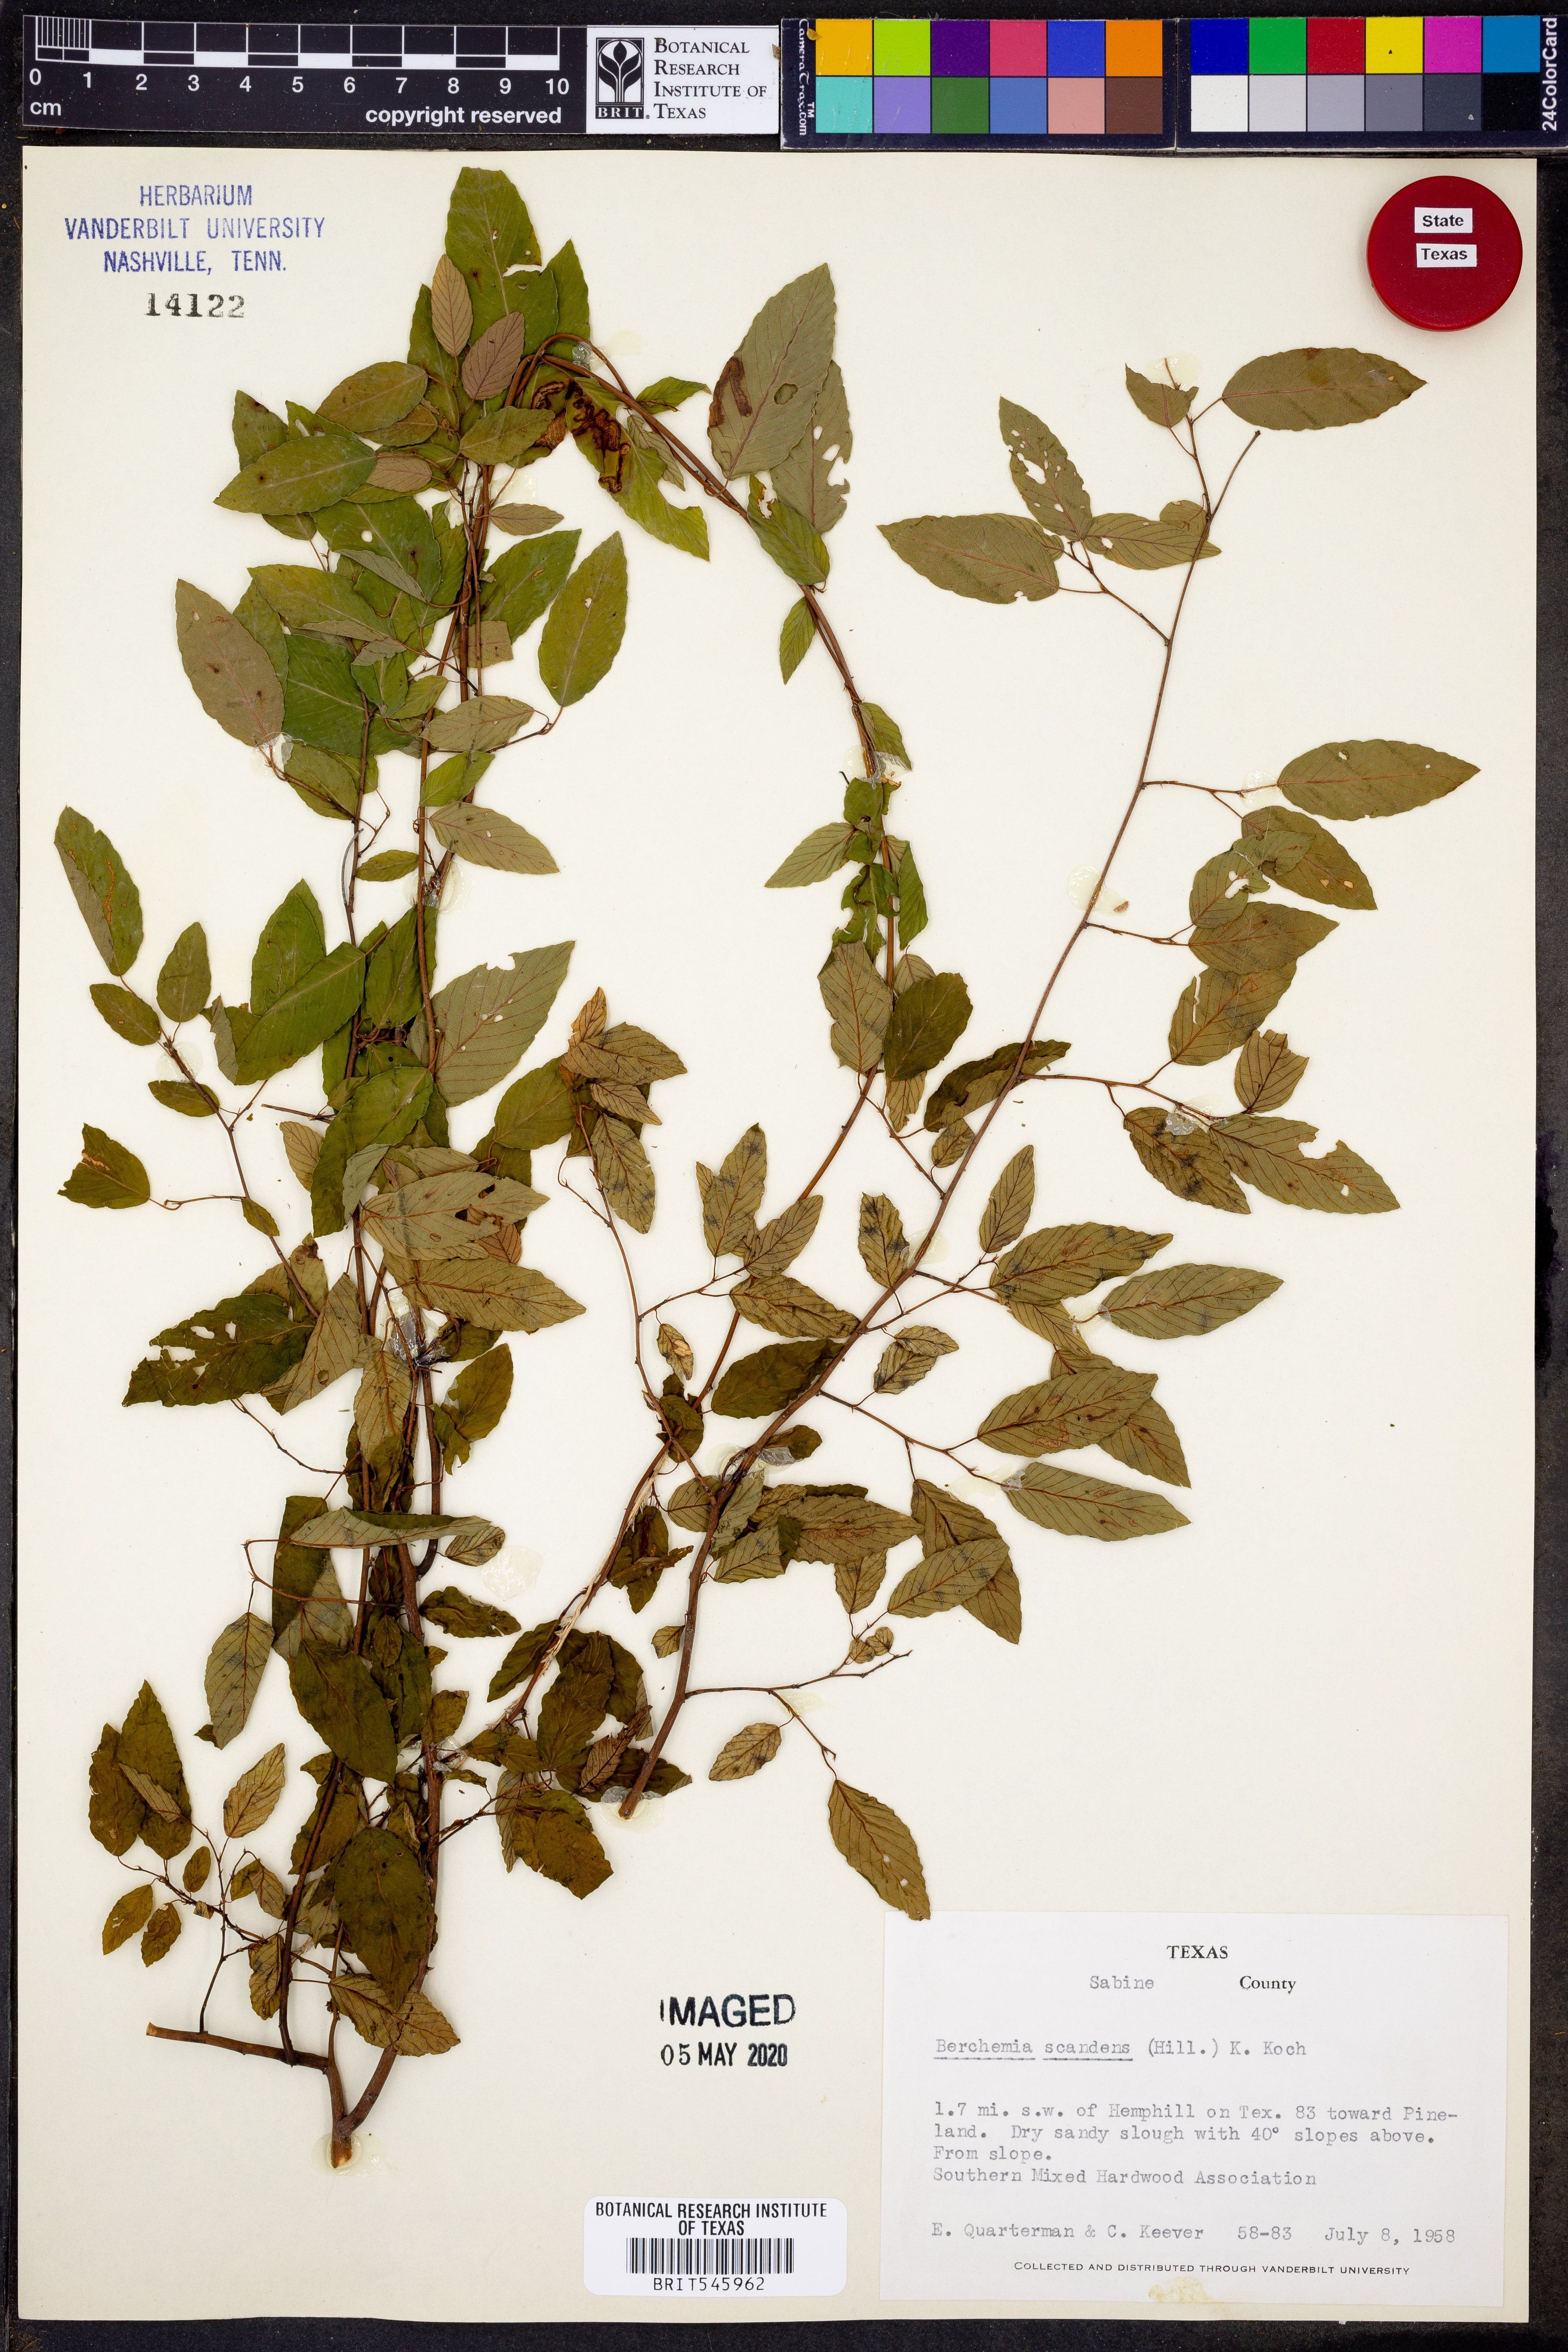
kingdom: Plantae
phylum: Tracheophyta
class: Magnoliopsida
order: Rosales
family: Rhamnaceae
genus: Berchemia
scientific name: Berchemia scandens
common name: Supplejack
